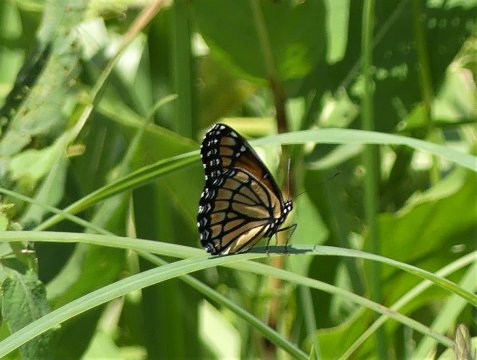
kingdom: Animalia
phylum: Arthropoda
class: Insecta
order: Lepidoptera
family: Nymphalidae
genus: Limenitis
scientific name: Limenitis archippus
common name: Viceroy
